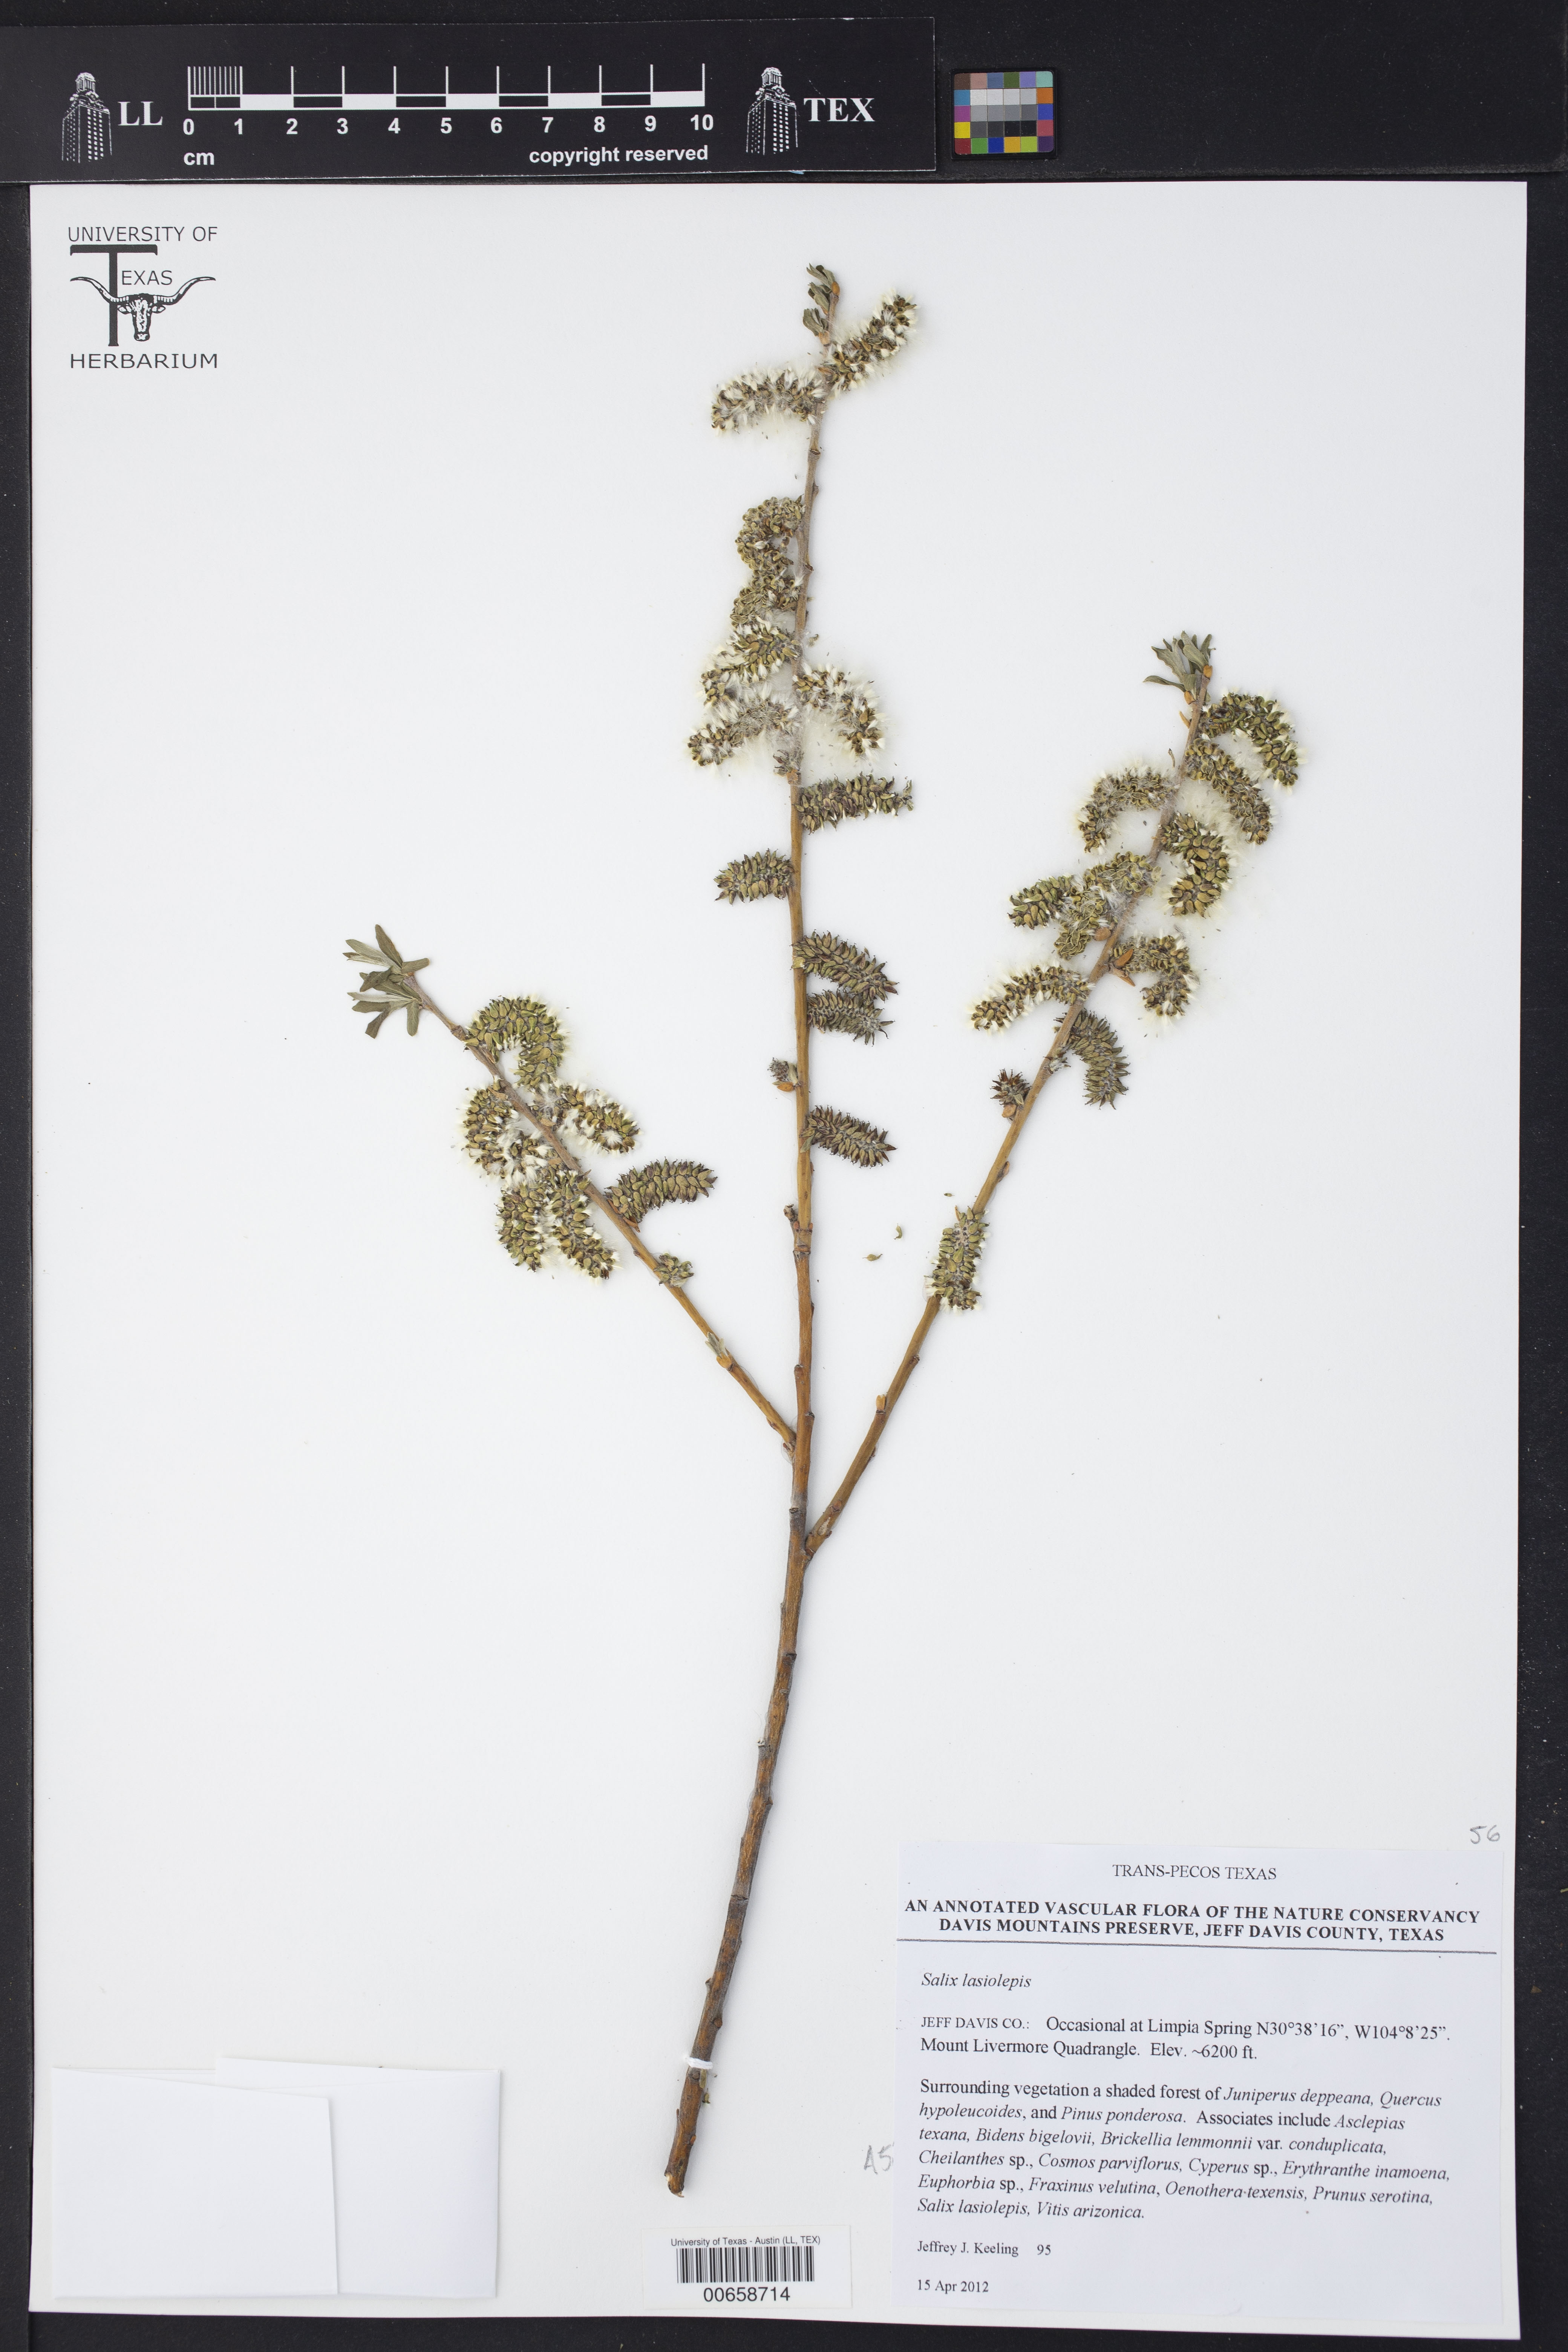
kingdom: Plantae
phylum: Tracheophyta
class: Magnoliopsida
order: Malpighiales
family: Salicaceae
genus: Salix
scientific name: Salix lasiolepis
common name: Arroyo willow
